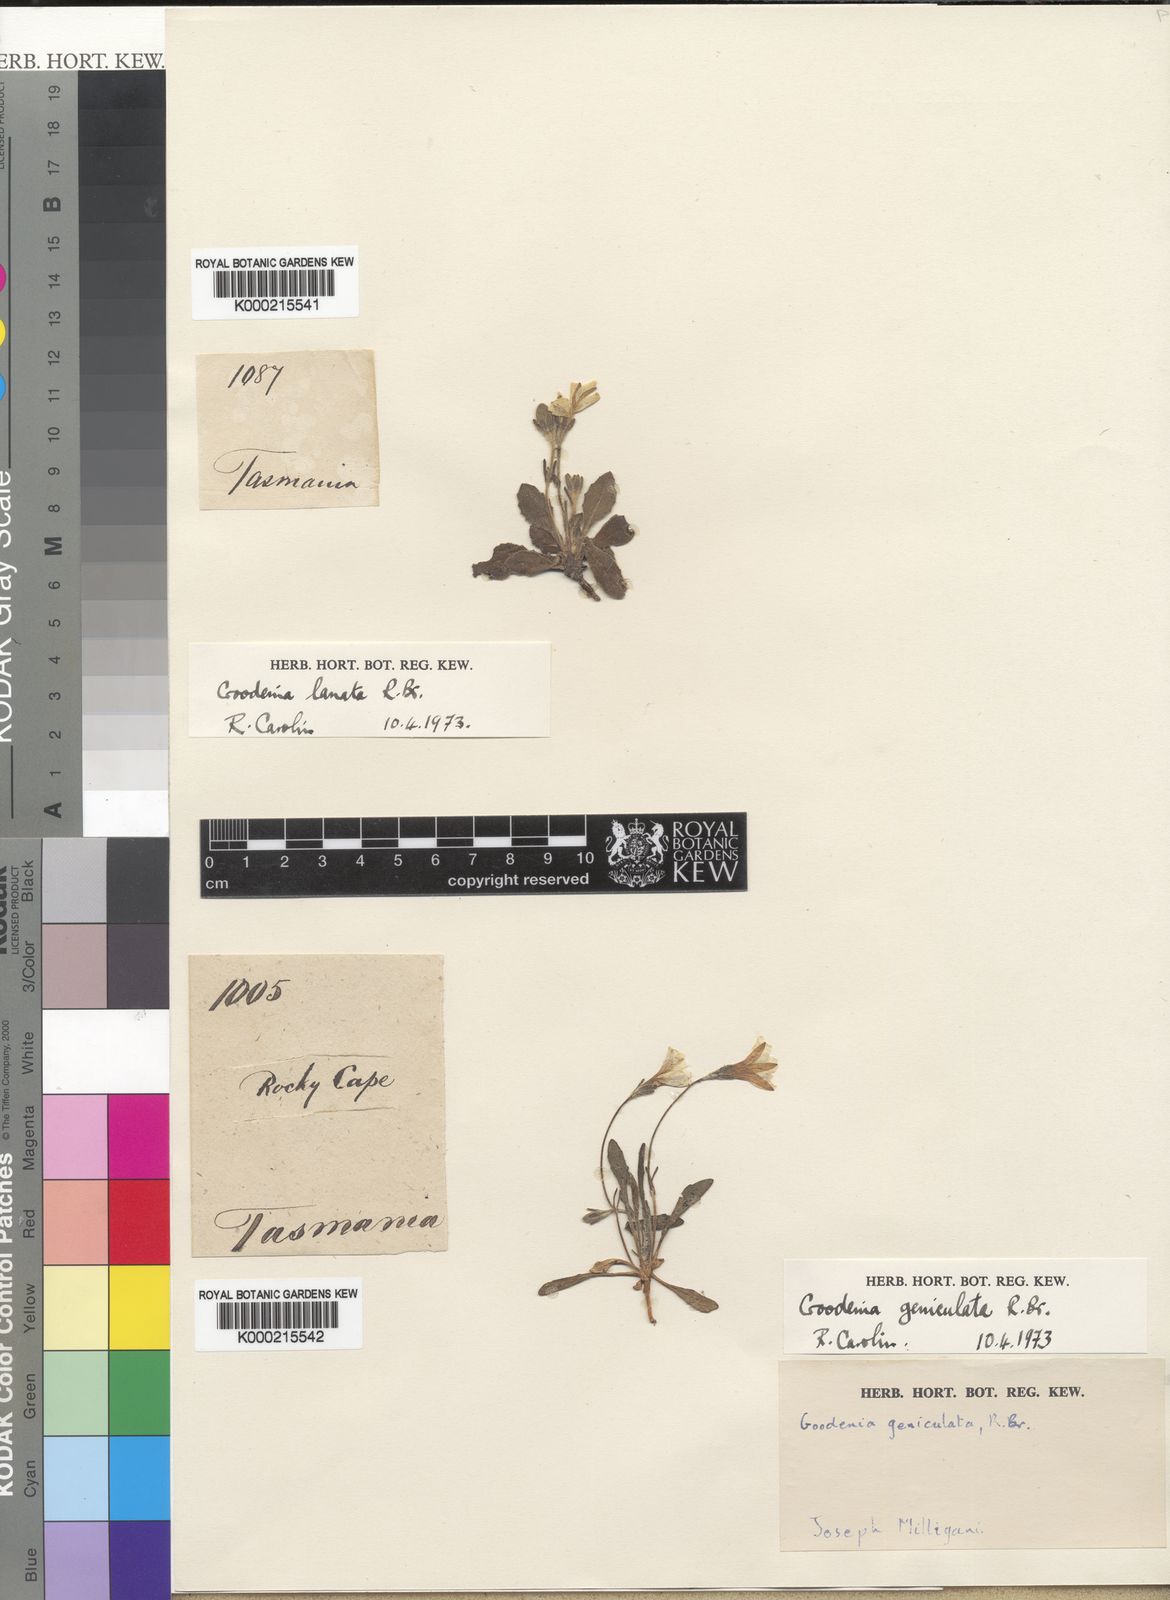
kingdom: Plantae
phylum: Tracheophyta
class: Magnoliopsida
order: Asterales
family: Goodeniaceae
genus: Goodenia
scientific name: Goodenia lanata
